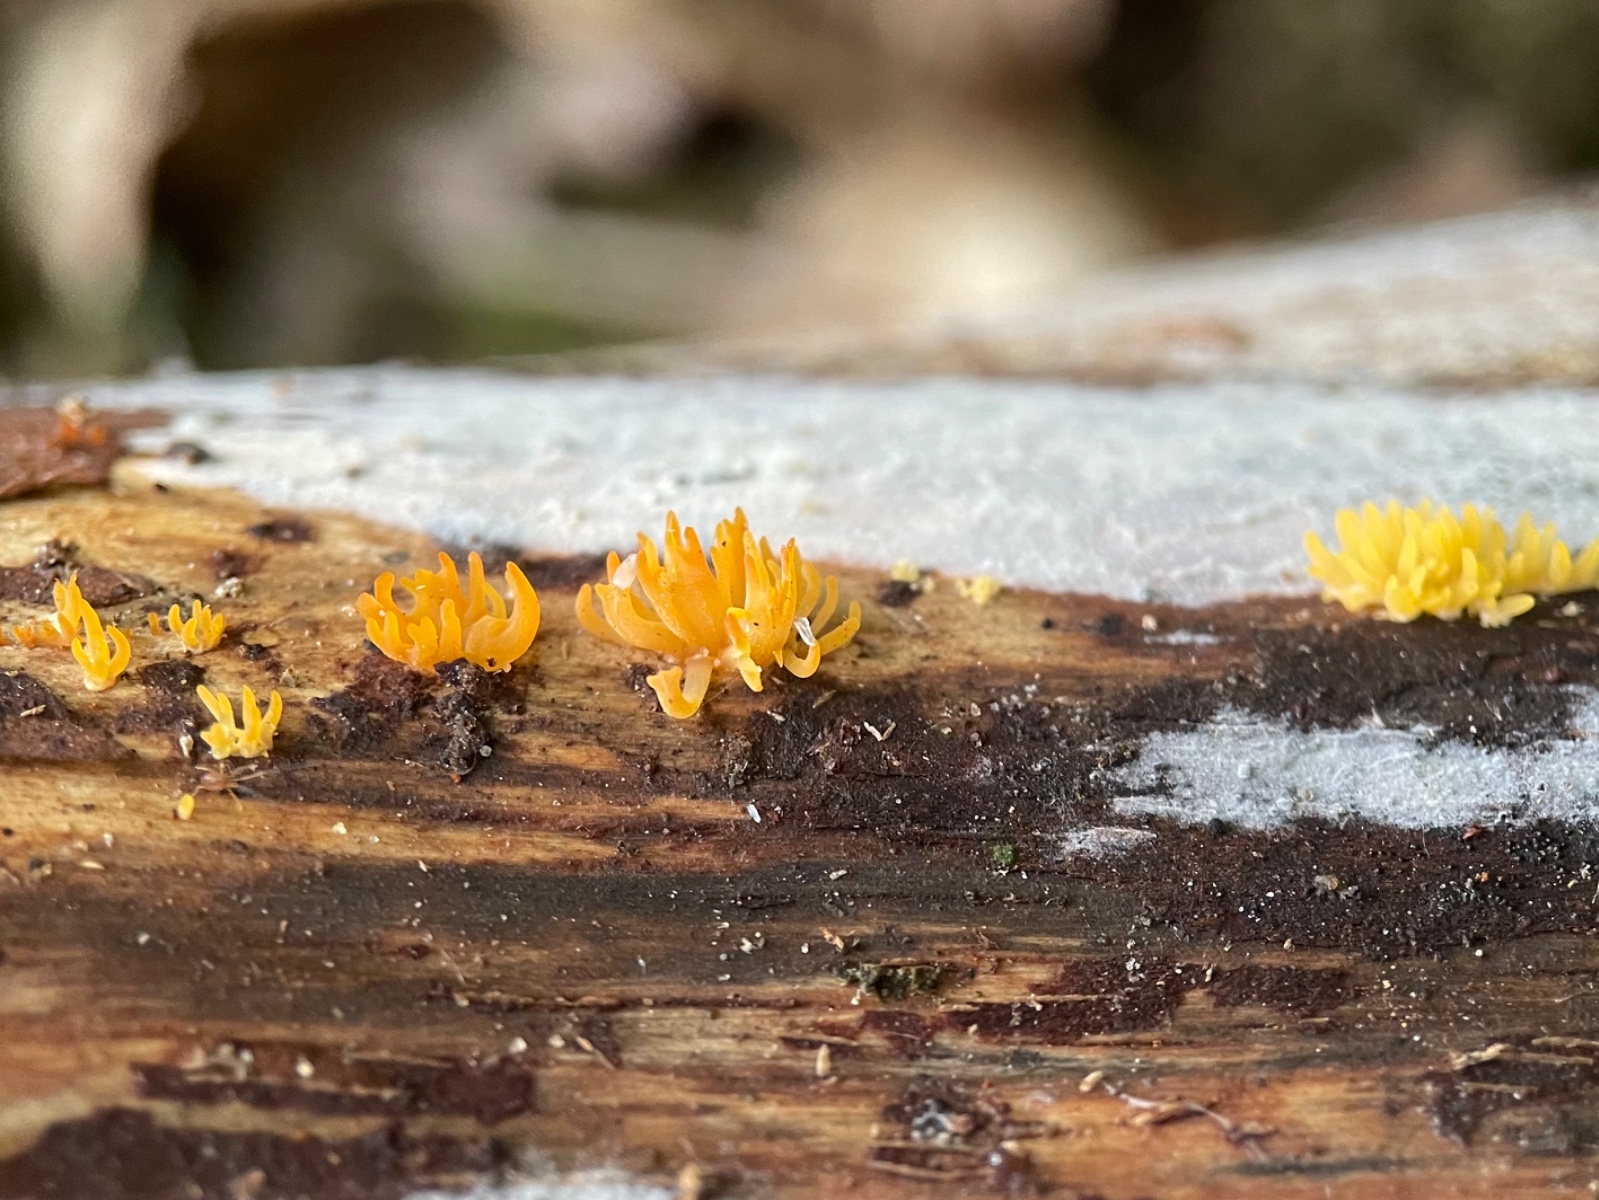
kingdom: Fungi
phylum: Basidiomycota
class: Dacrymycetes
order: Dacrymycetales
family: Dacrymycetaceae
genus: Calocera
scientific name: Calocera cornea
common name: liden guldgaffel
